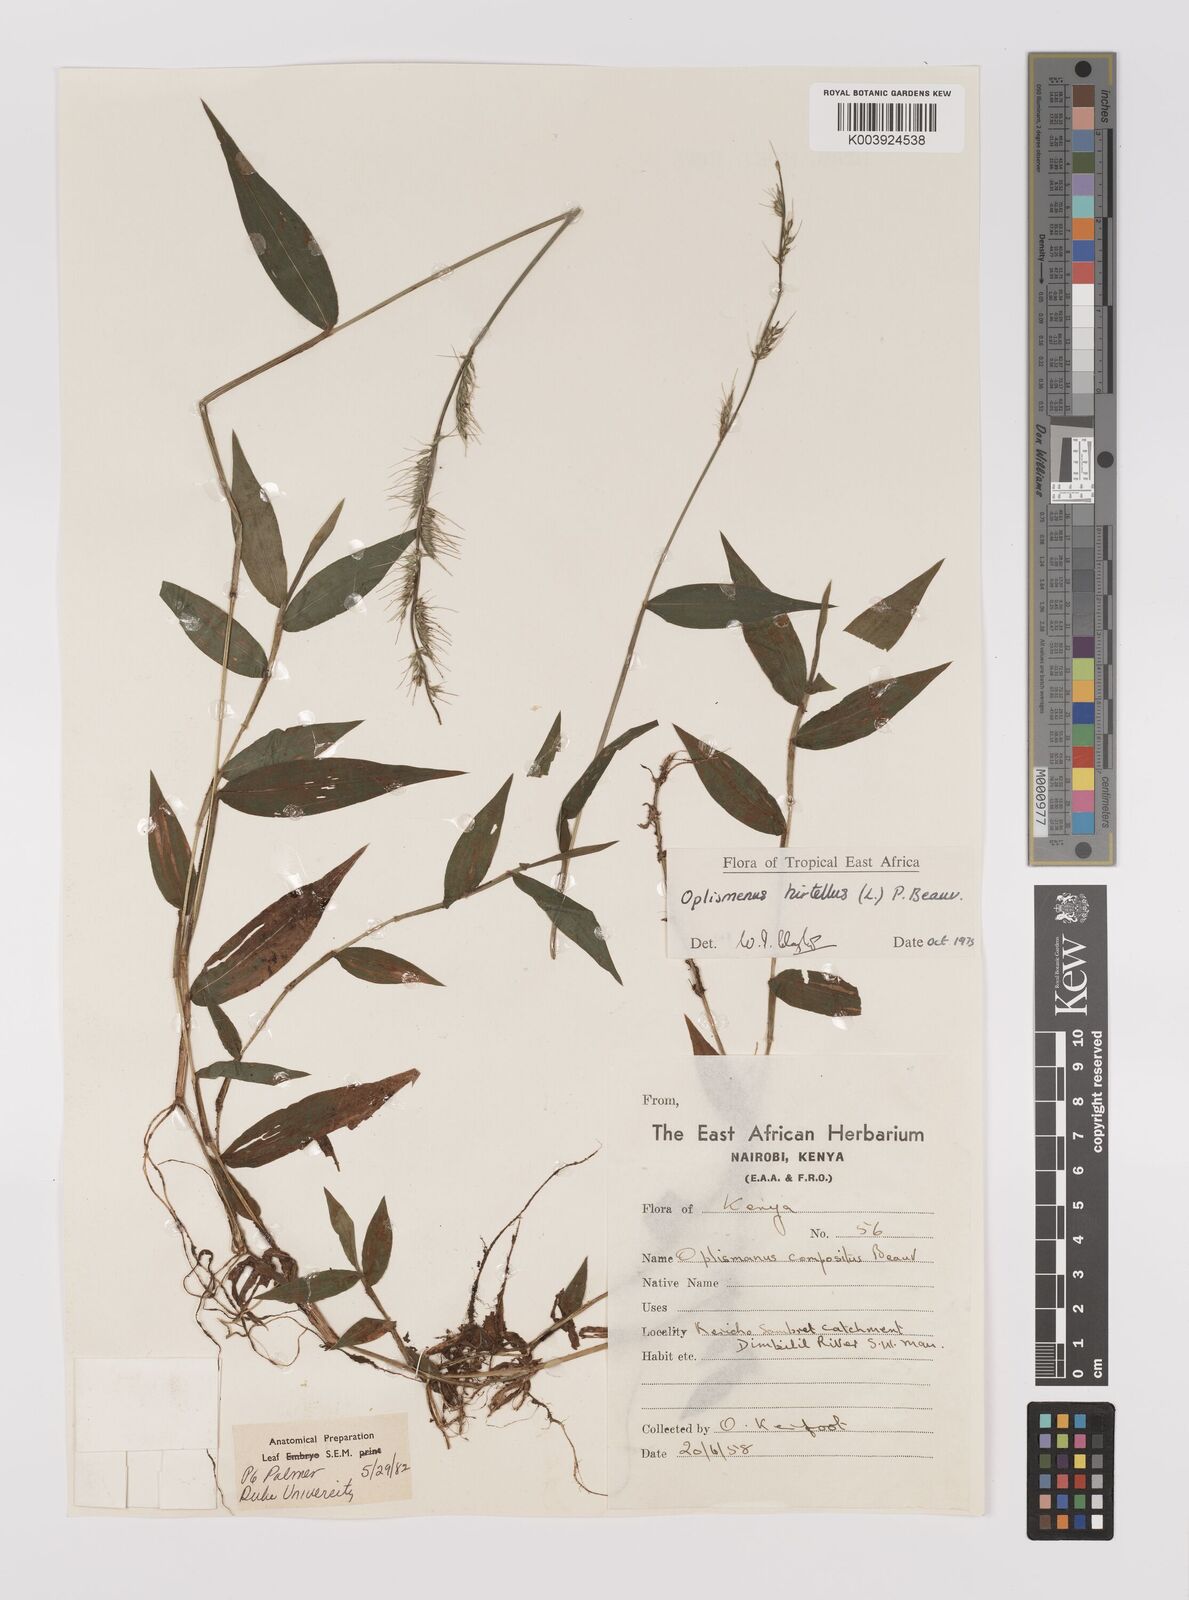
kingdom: Plantae
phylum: Tracheophyta
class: Liliopsida
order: Poales
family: Poaceae
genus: Oplismenus
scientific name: Oplismenus hirtellus
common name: Basketgrass
